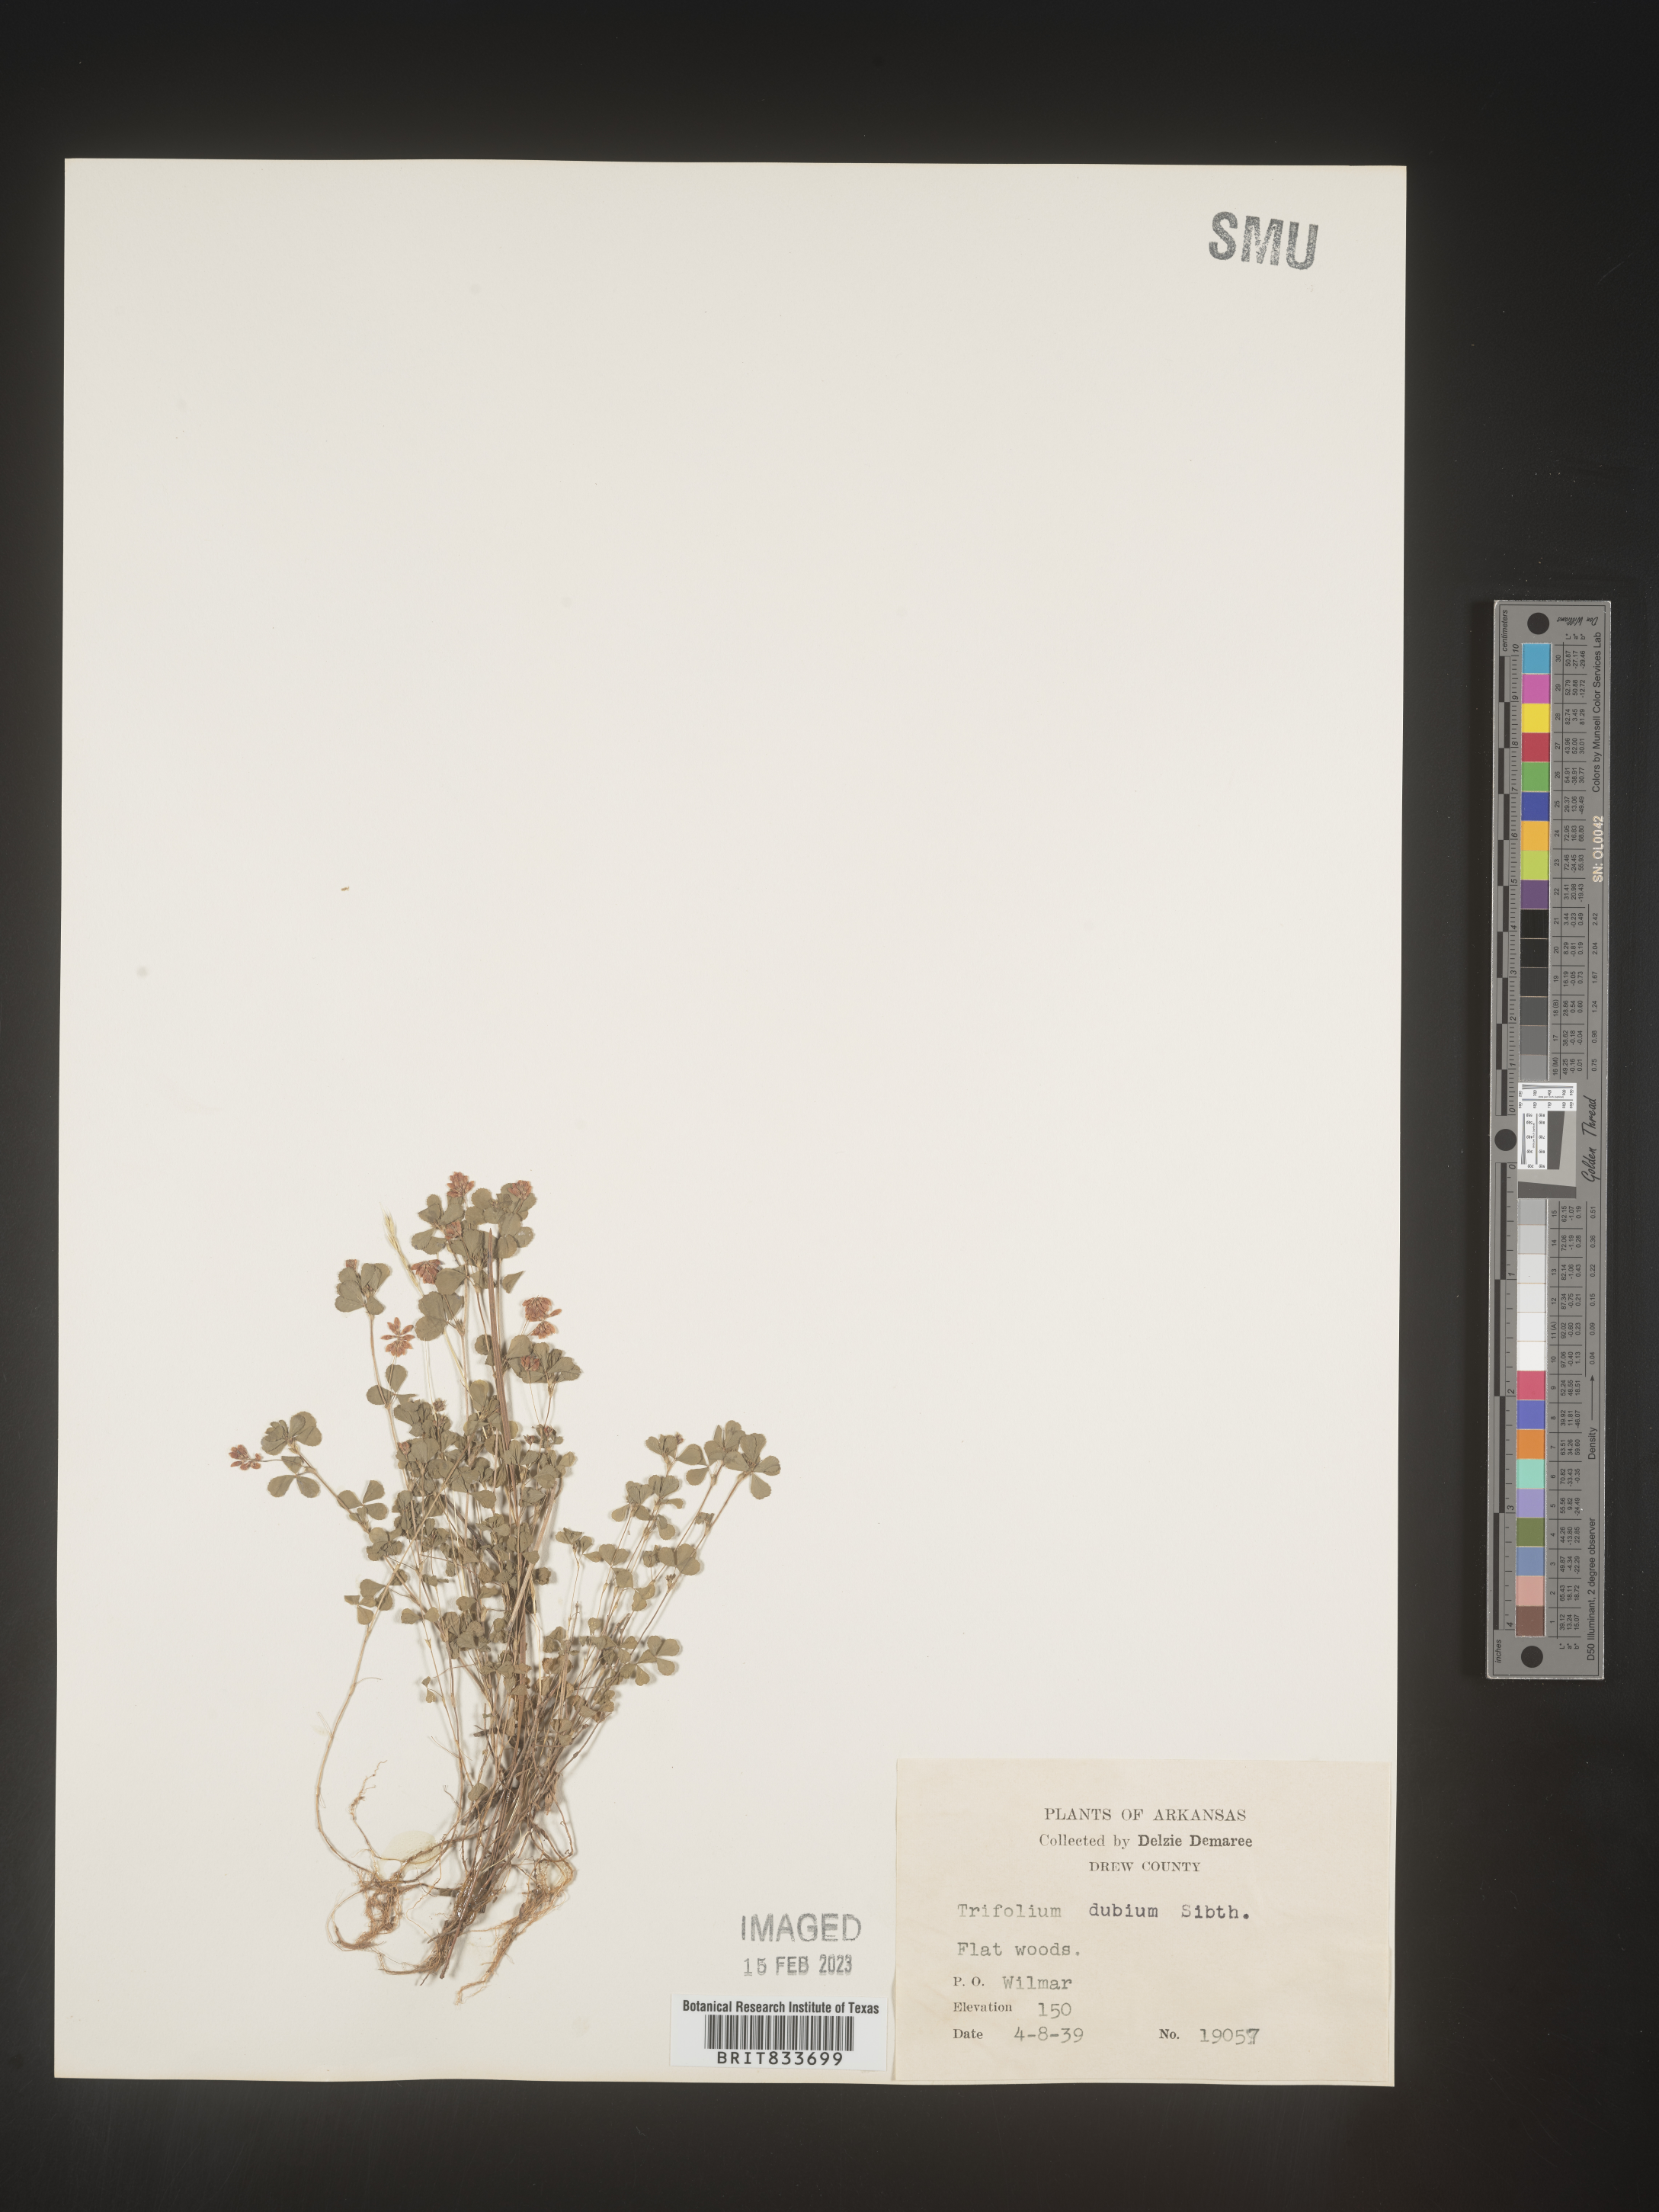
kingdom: Plantae
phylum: Tracheophyta
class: Magnoliopsida
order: Fabales
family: Fabaceae
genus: Trifolium
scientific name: Trifolium dubium
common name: Suckling clover
